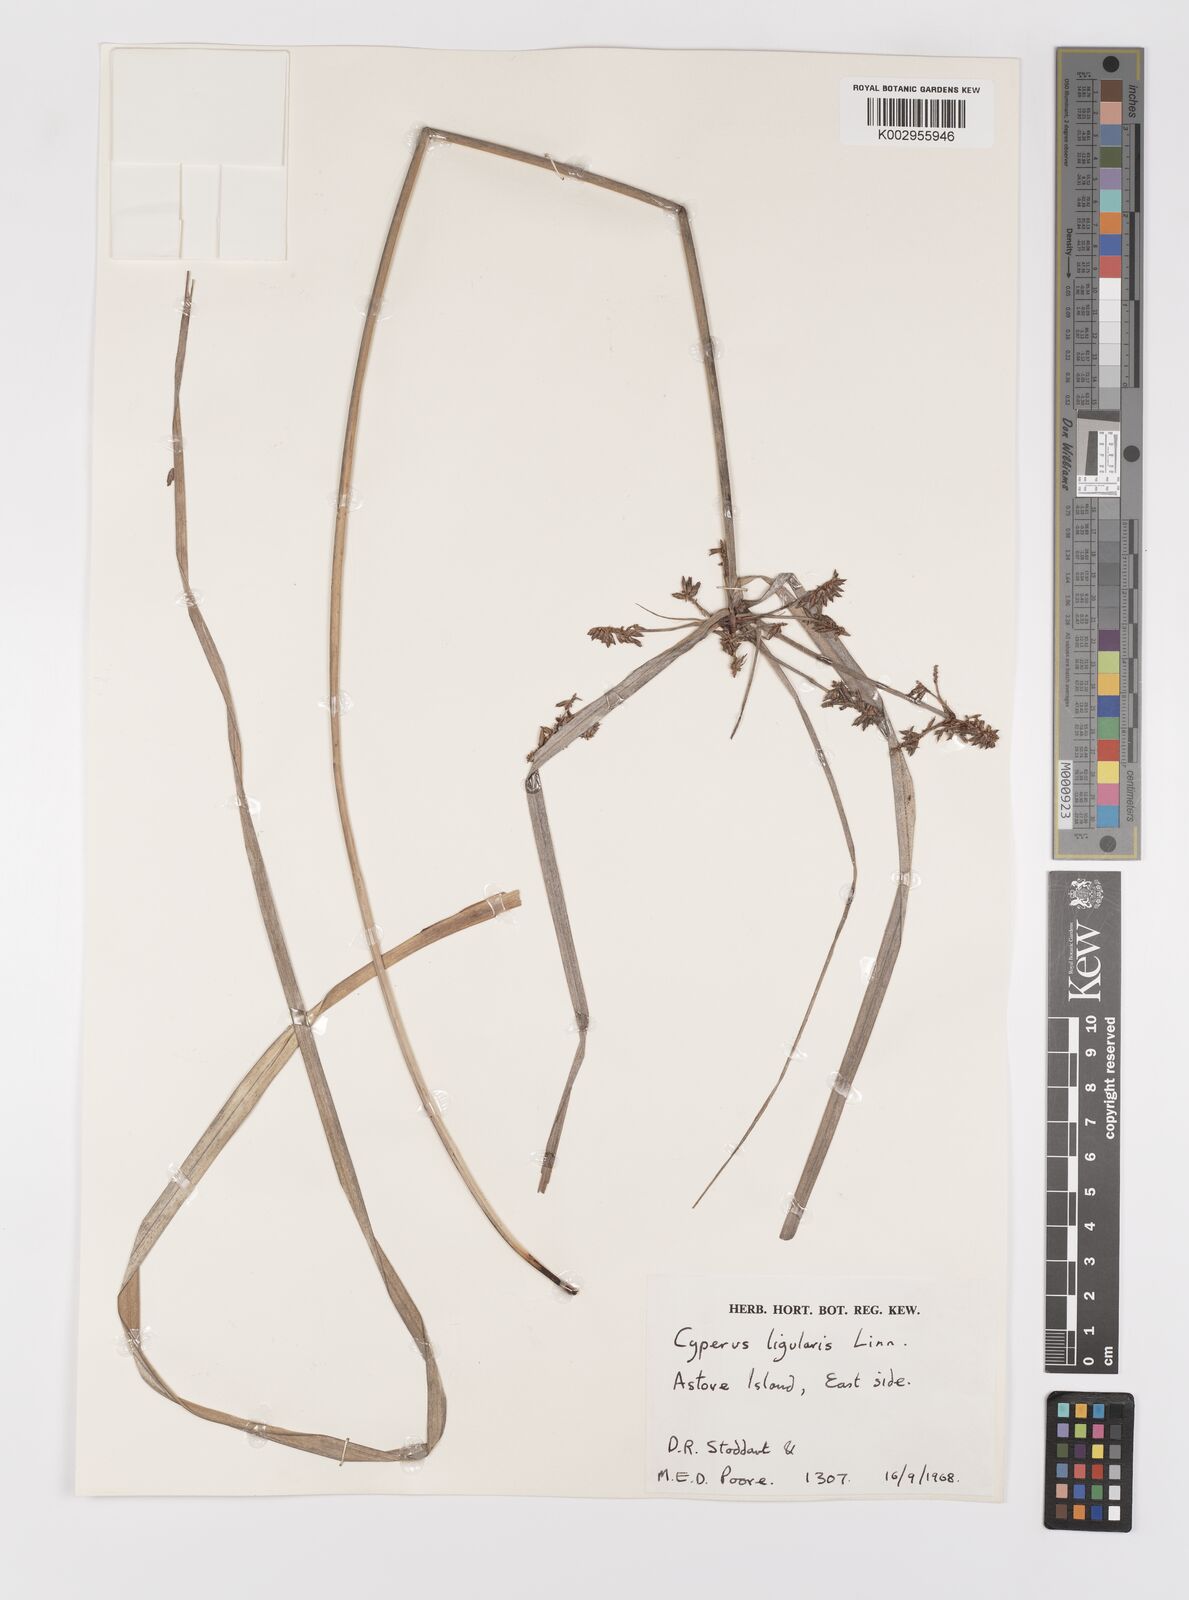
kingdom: Plantae
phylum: Tracheophyta
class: Liliopsida
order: Poales
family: Cyperaceae
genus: Cyperus
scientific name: Cyperus ligularis
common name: Swamp flat sedge
